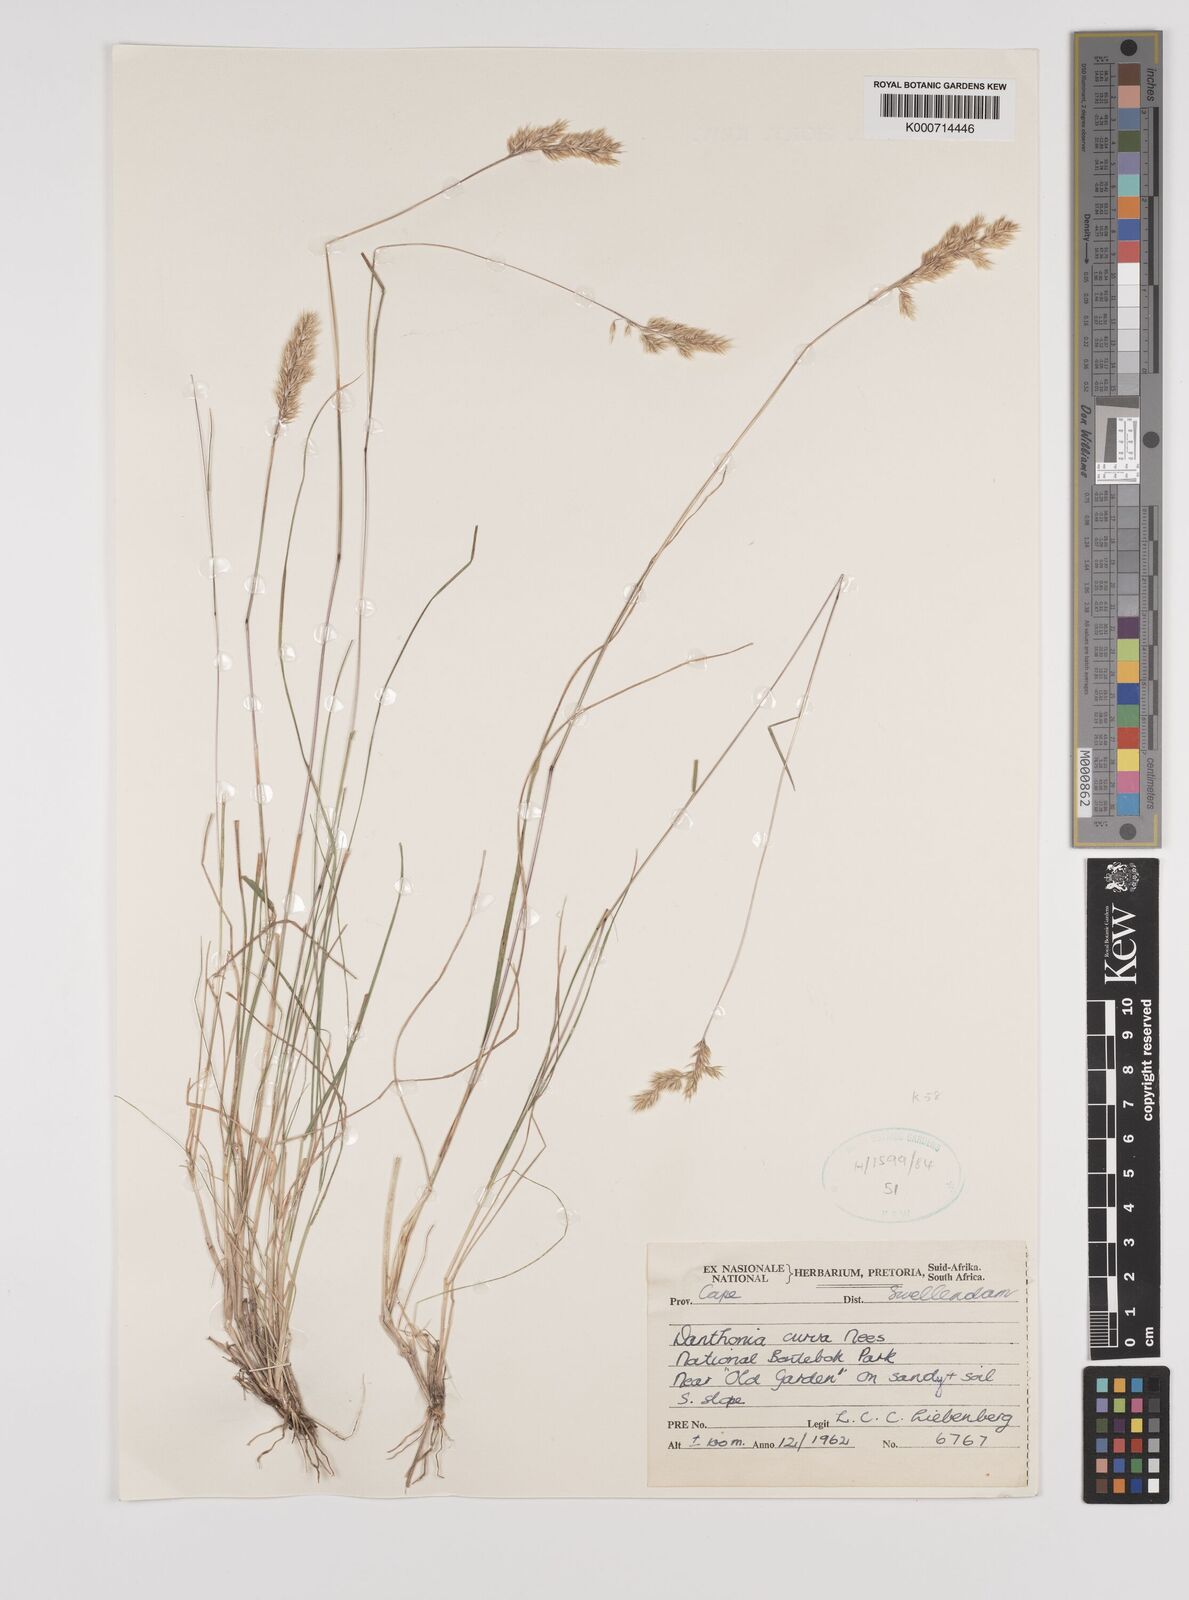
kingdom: Plantae
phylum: Tracheophyta
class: Liliopsida
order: Poales
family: Poaceae
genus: Rytidosperma
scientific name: Rytidosperma
